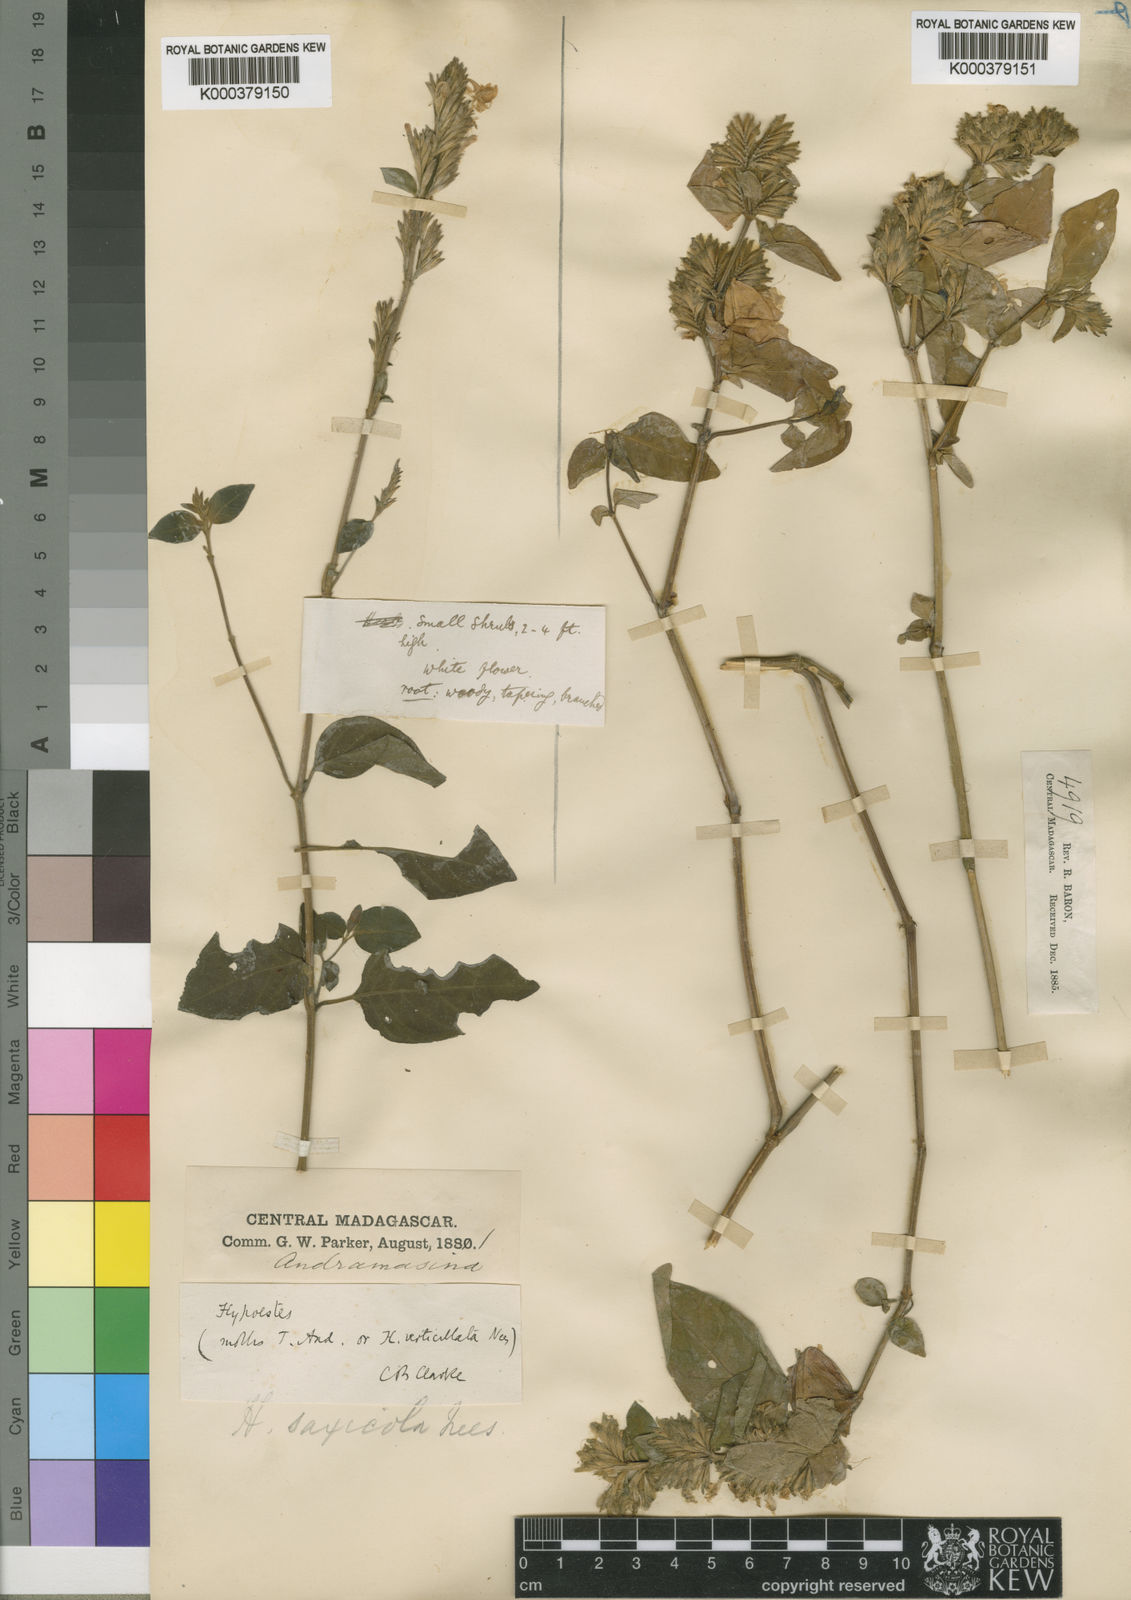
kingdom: Plantae
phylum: Tracheophyta
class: Magnoliopsida
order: Lamiales
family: Acanthaceae
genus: Hypoestes
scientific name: Hypoestes hastata
